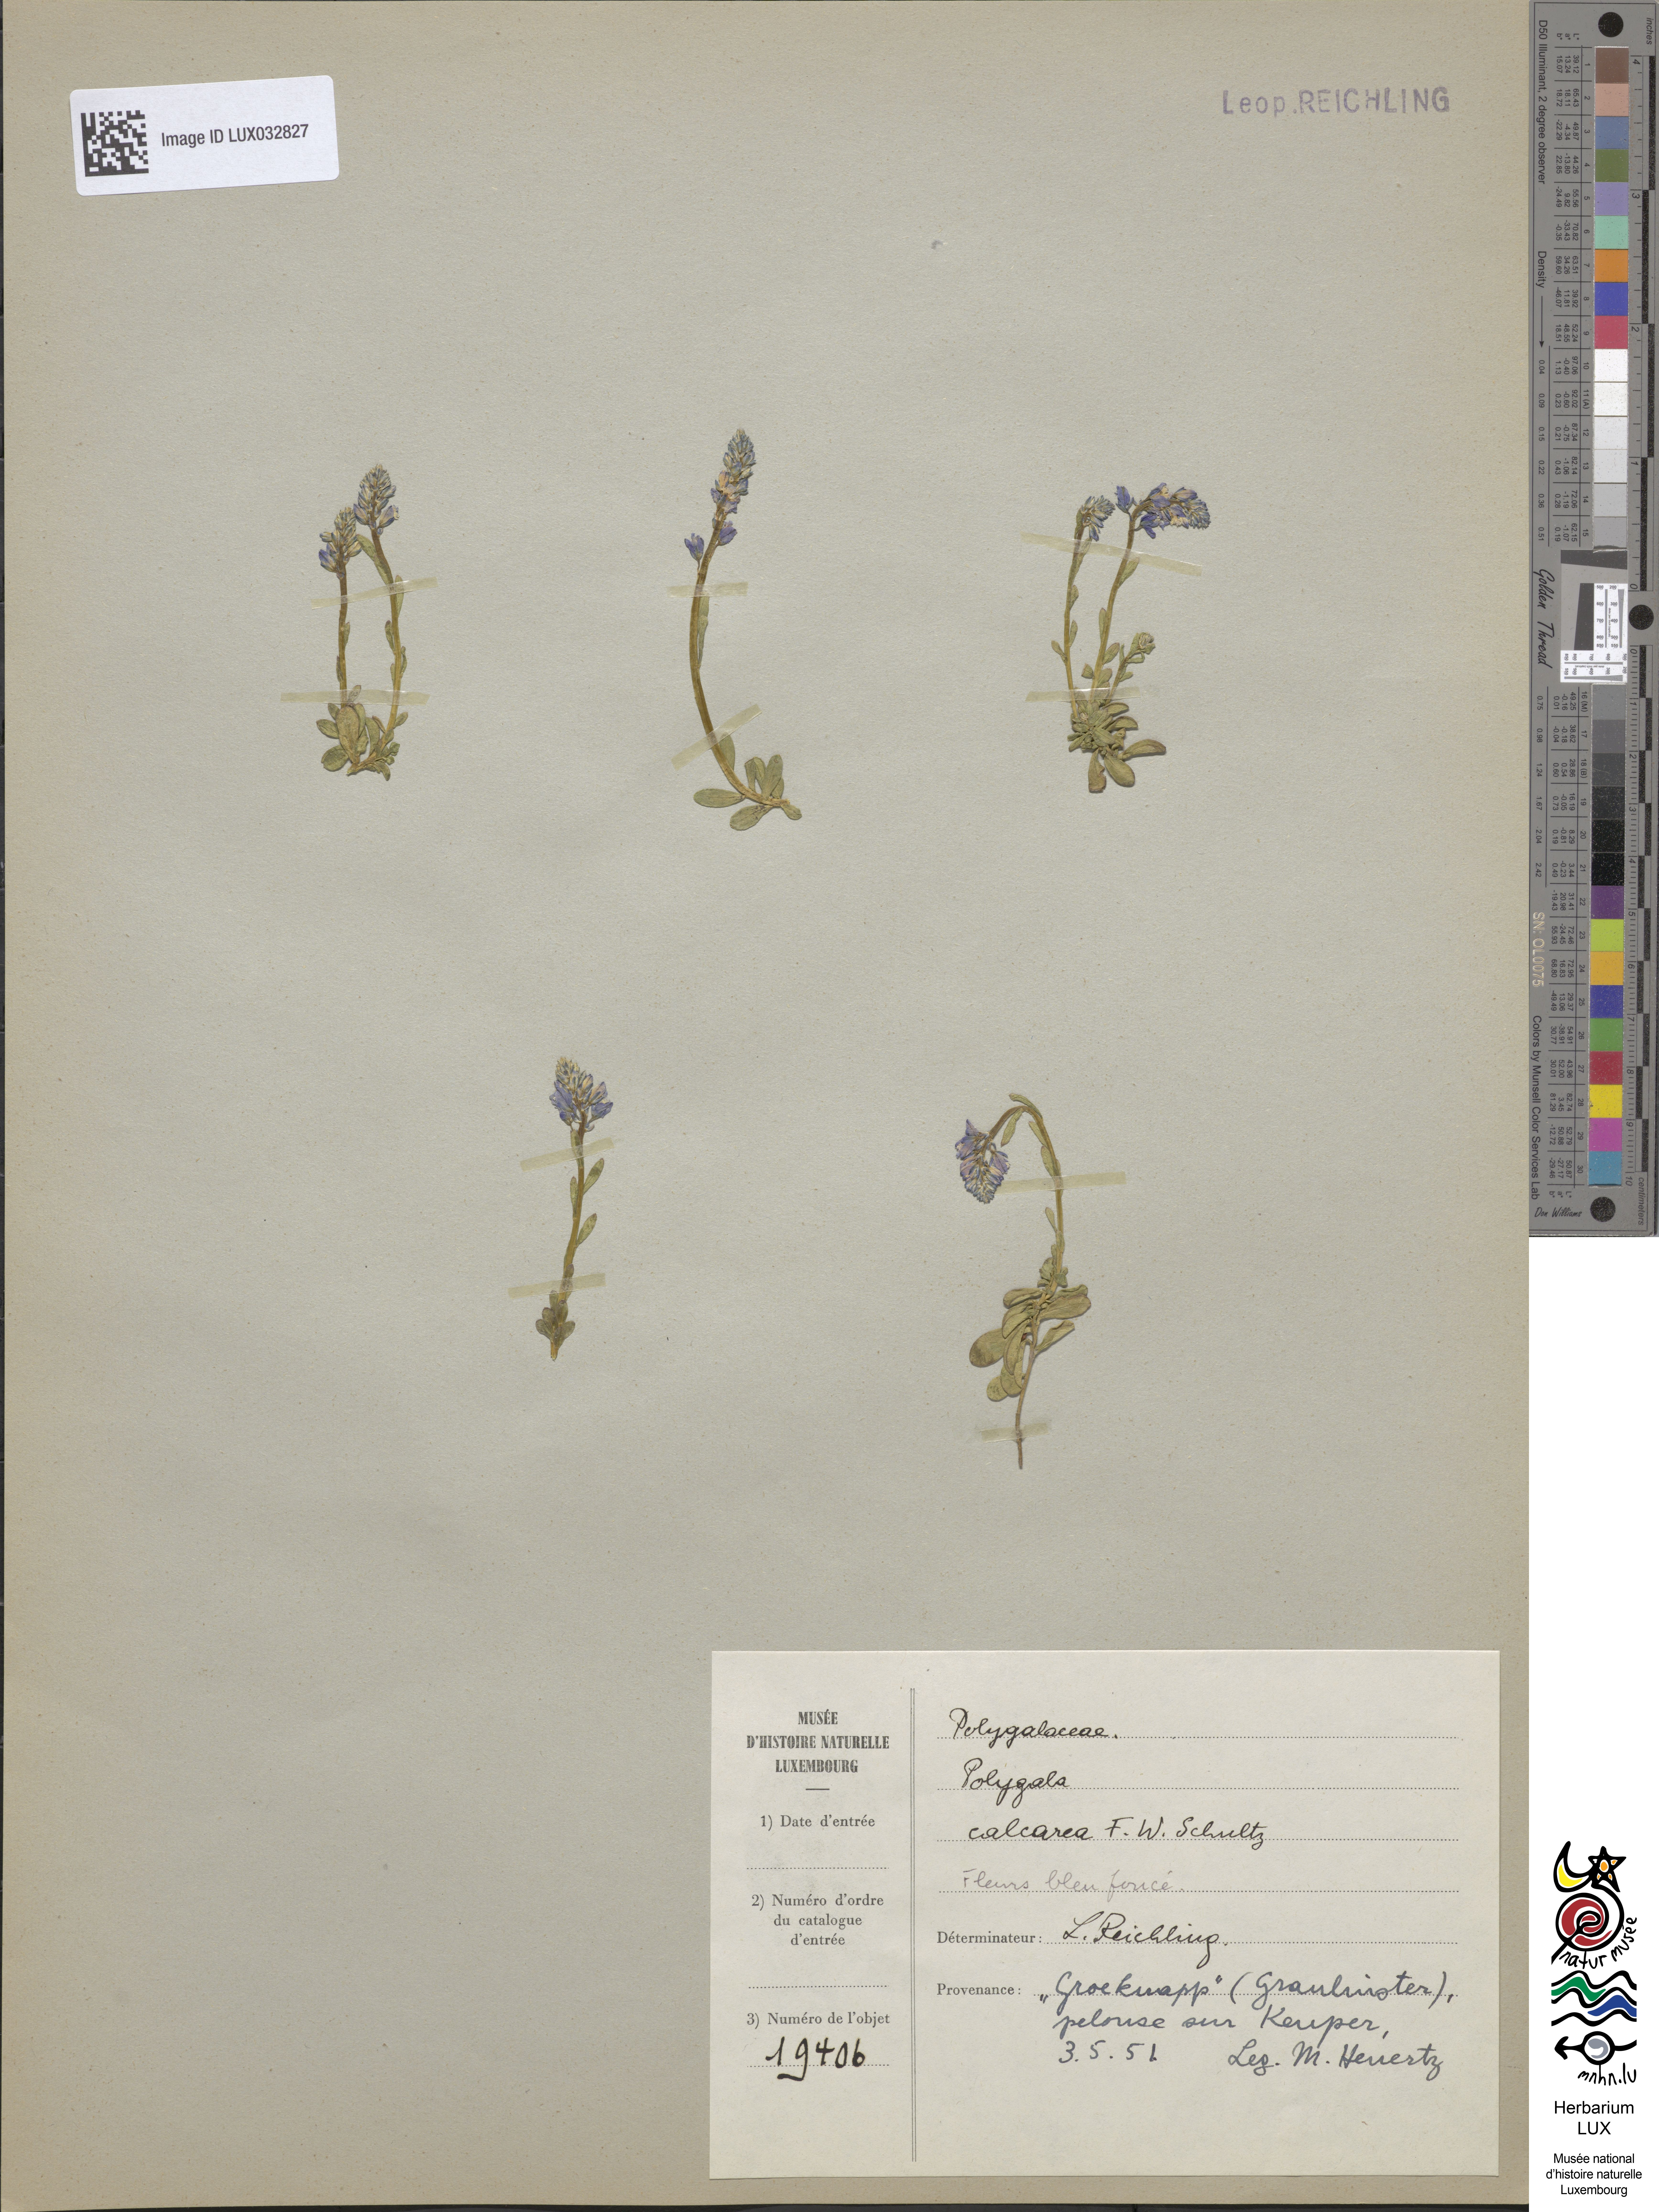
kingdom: Plantae
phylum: Tracheophyta
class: Magnoliopsida
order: Fabales
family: Polygalaceae
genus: Polygala
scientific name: Polygala calcarea
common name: Chalk milkwort
